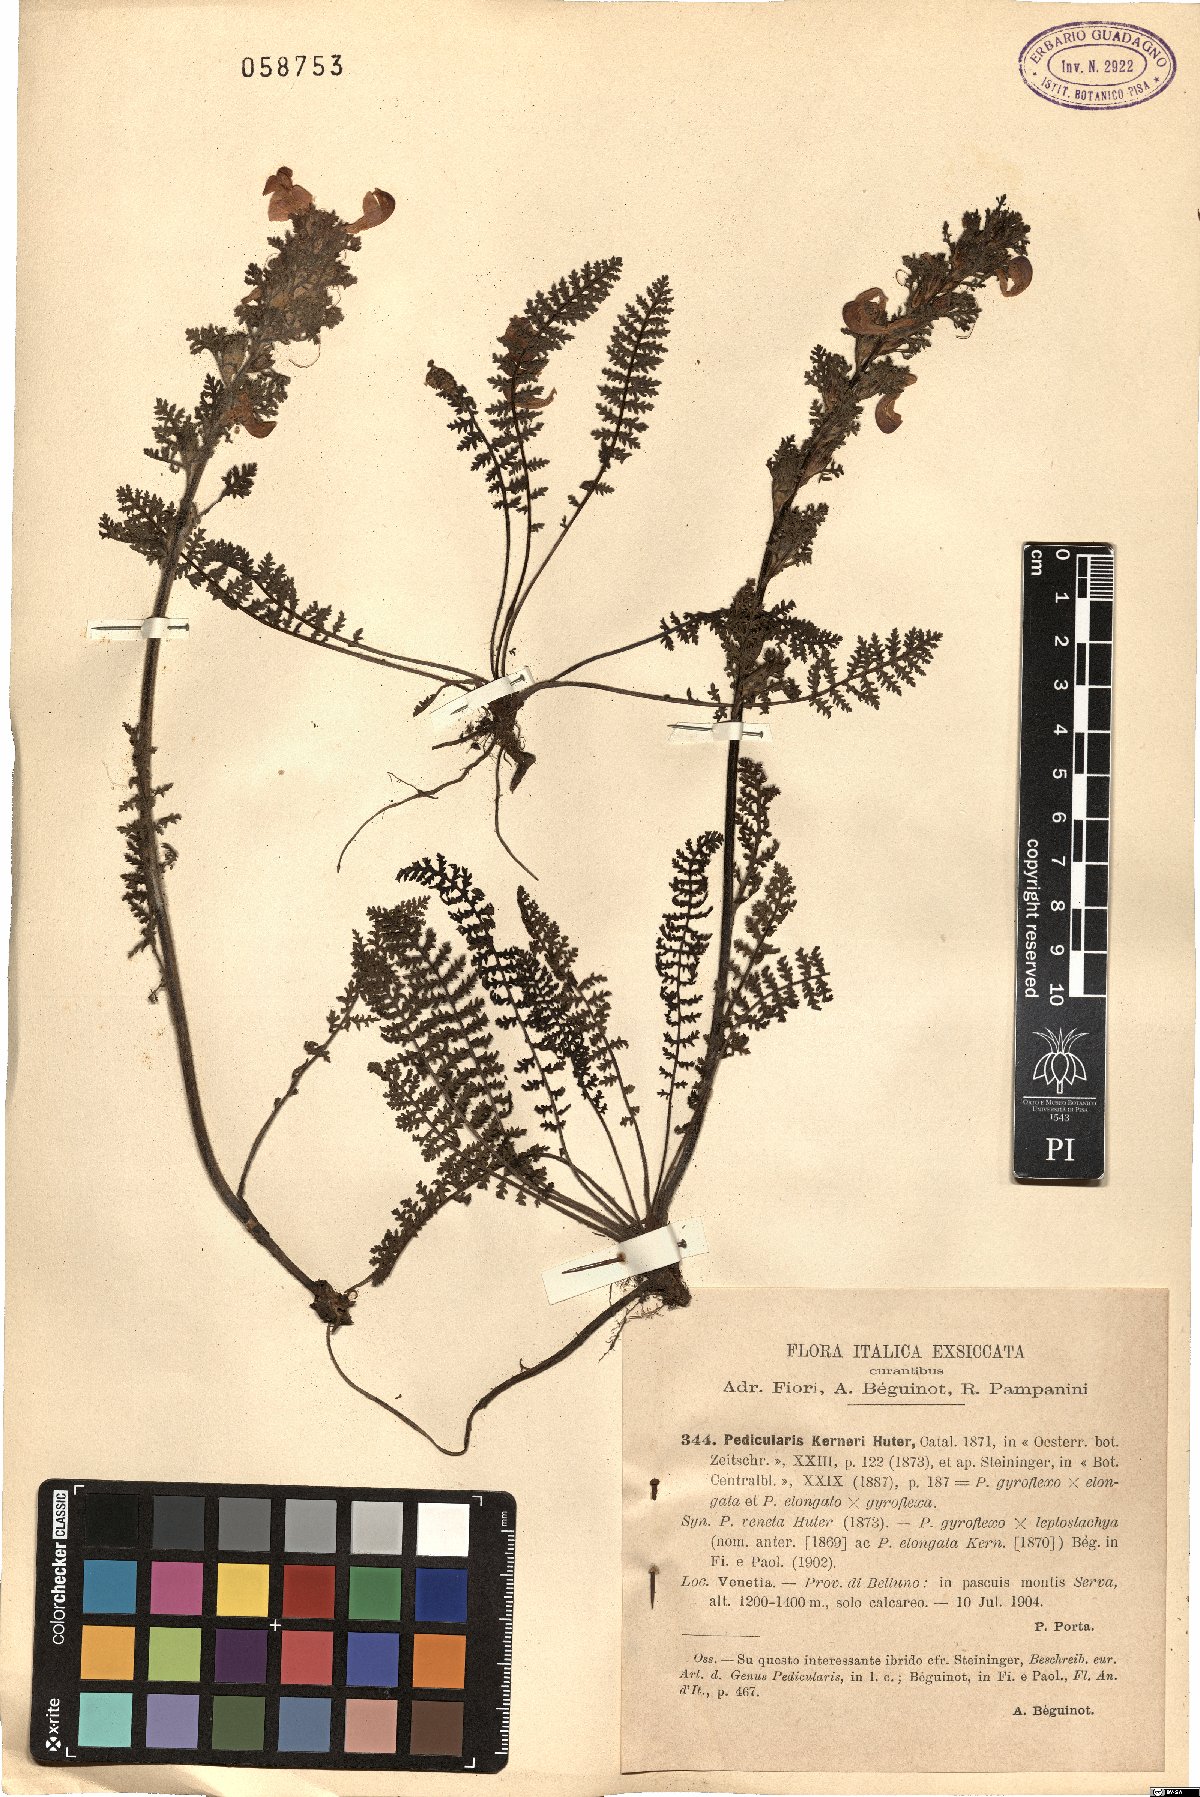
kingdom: Plantae
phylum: Tracheophyta
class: Magnoliopsida
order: Lamiales
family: Orobanchaceae
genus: Pedicularis
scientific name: Pedicularis kerneri
